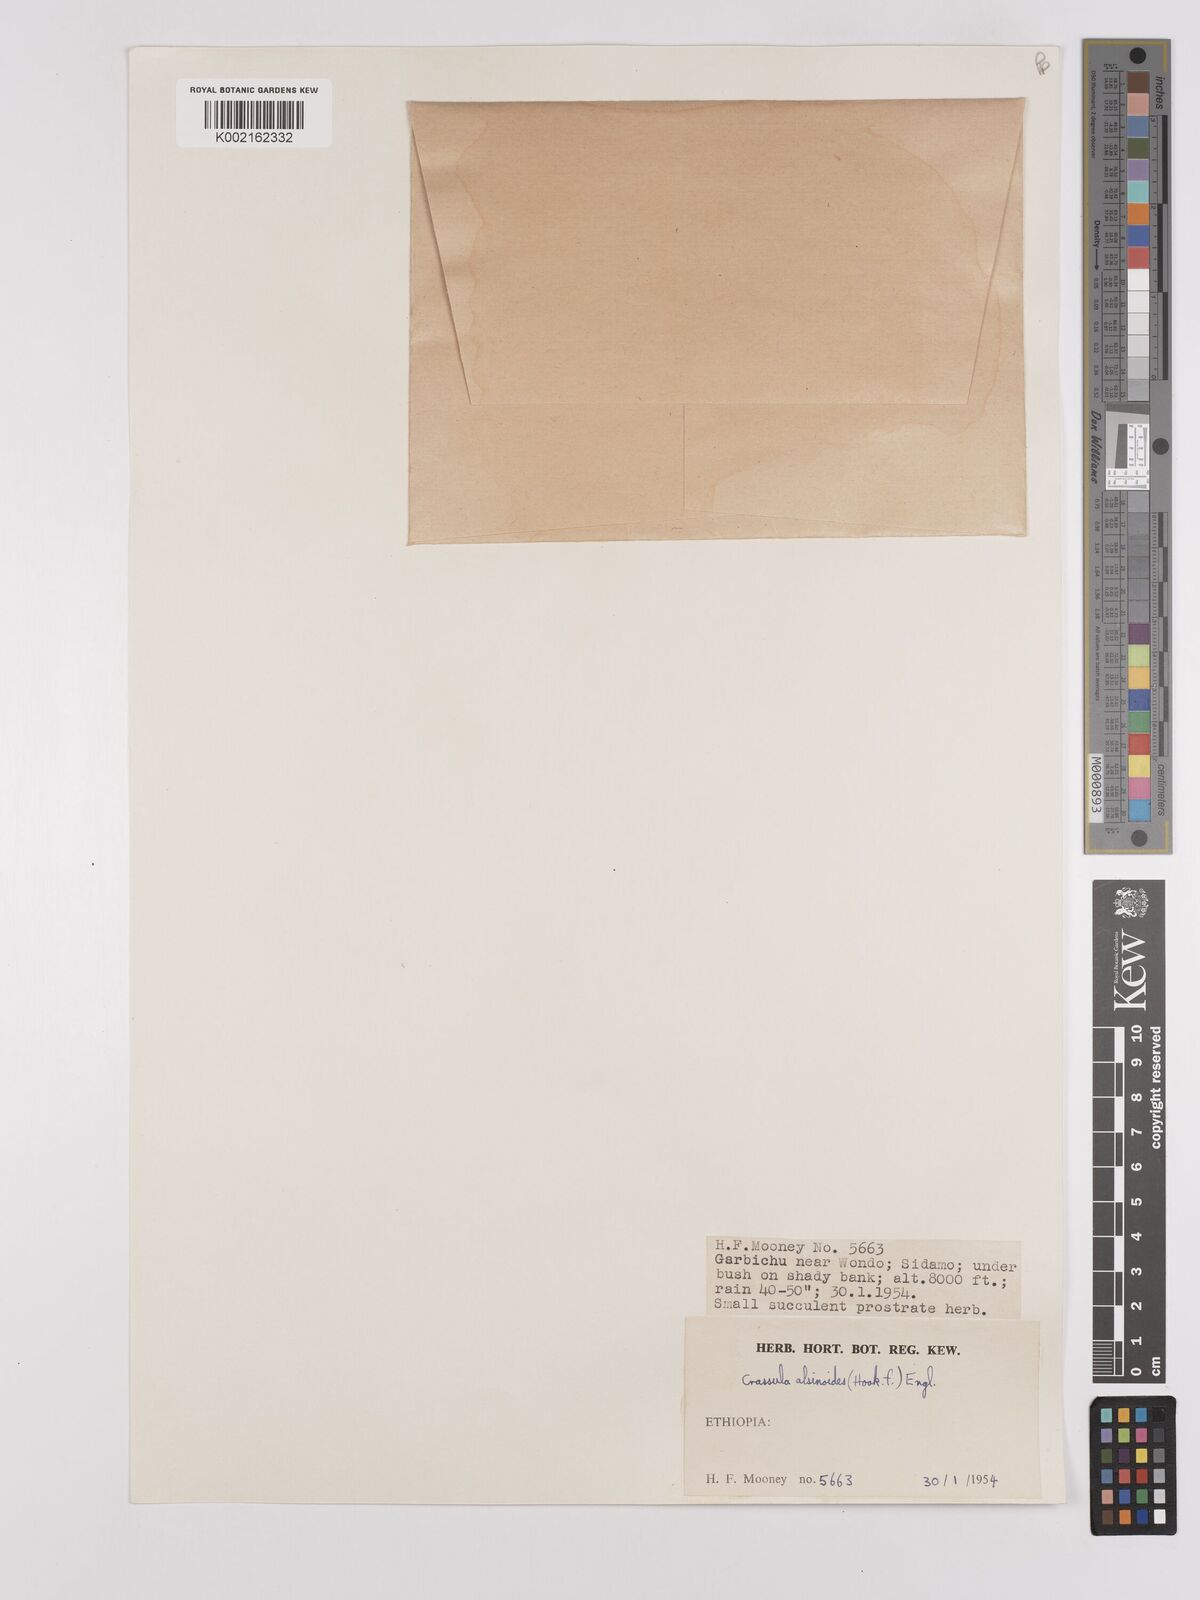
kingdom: Plantae
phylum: Tracheophyta
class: Magnoliopsida
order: Saxifragales
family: Crassulaceae
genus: Crassula
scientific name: Crassula alsinoides
